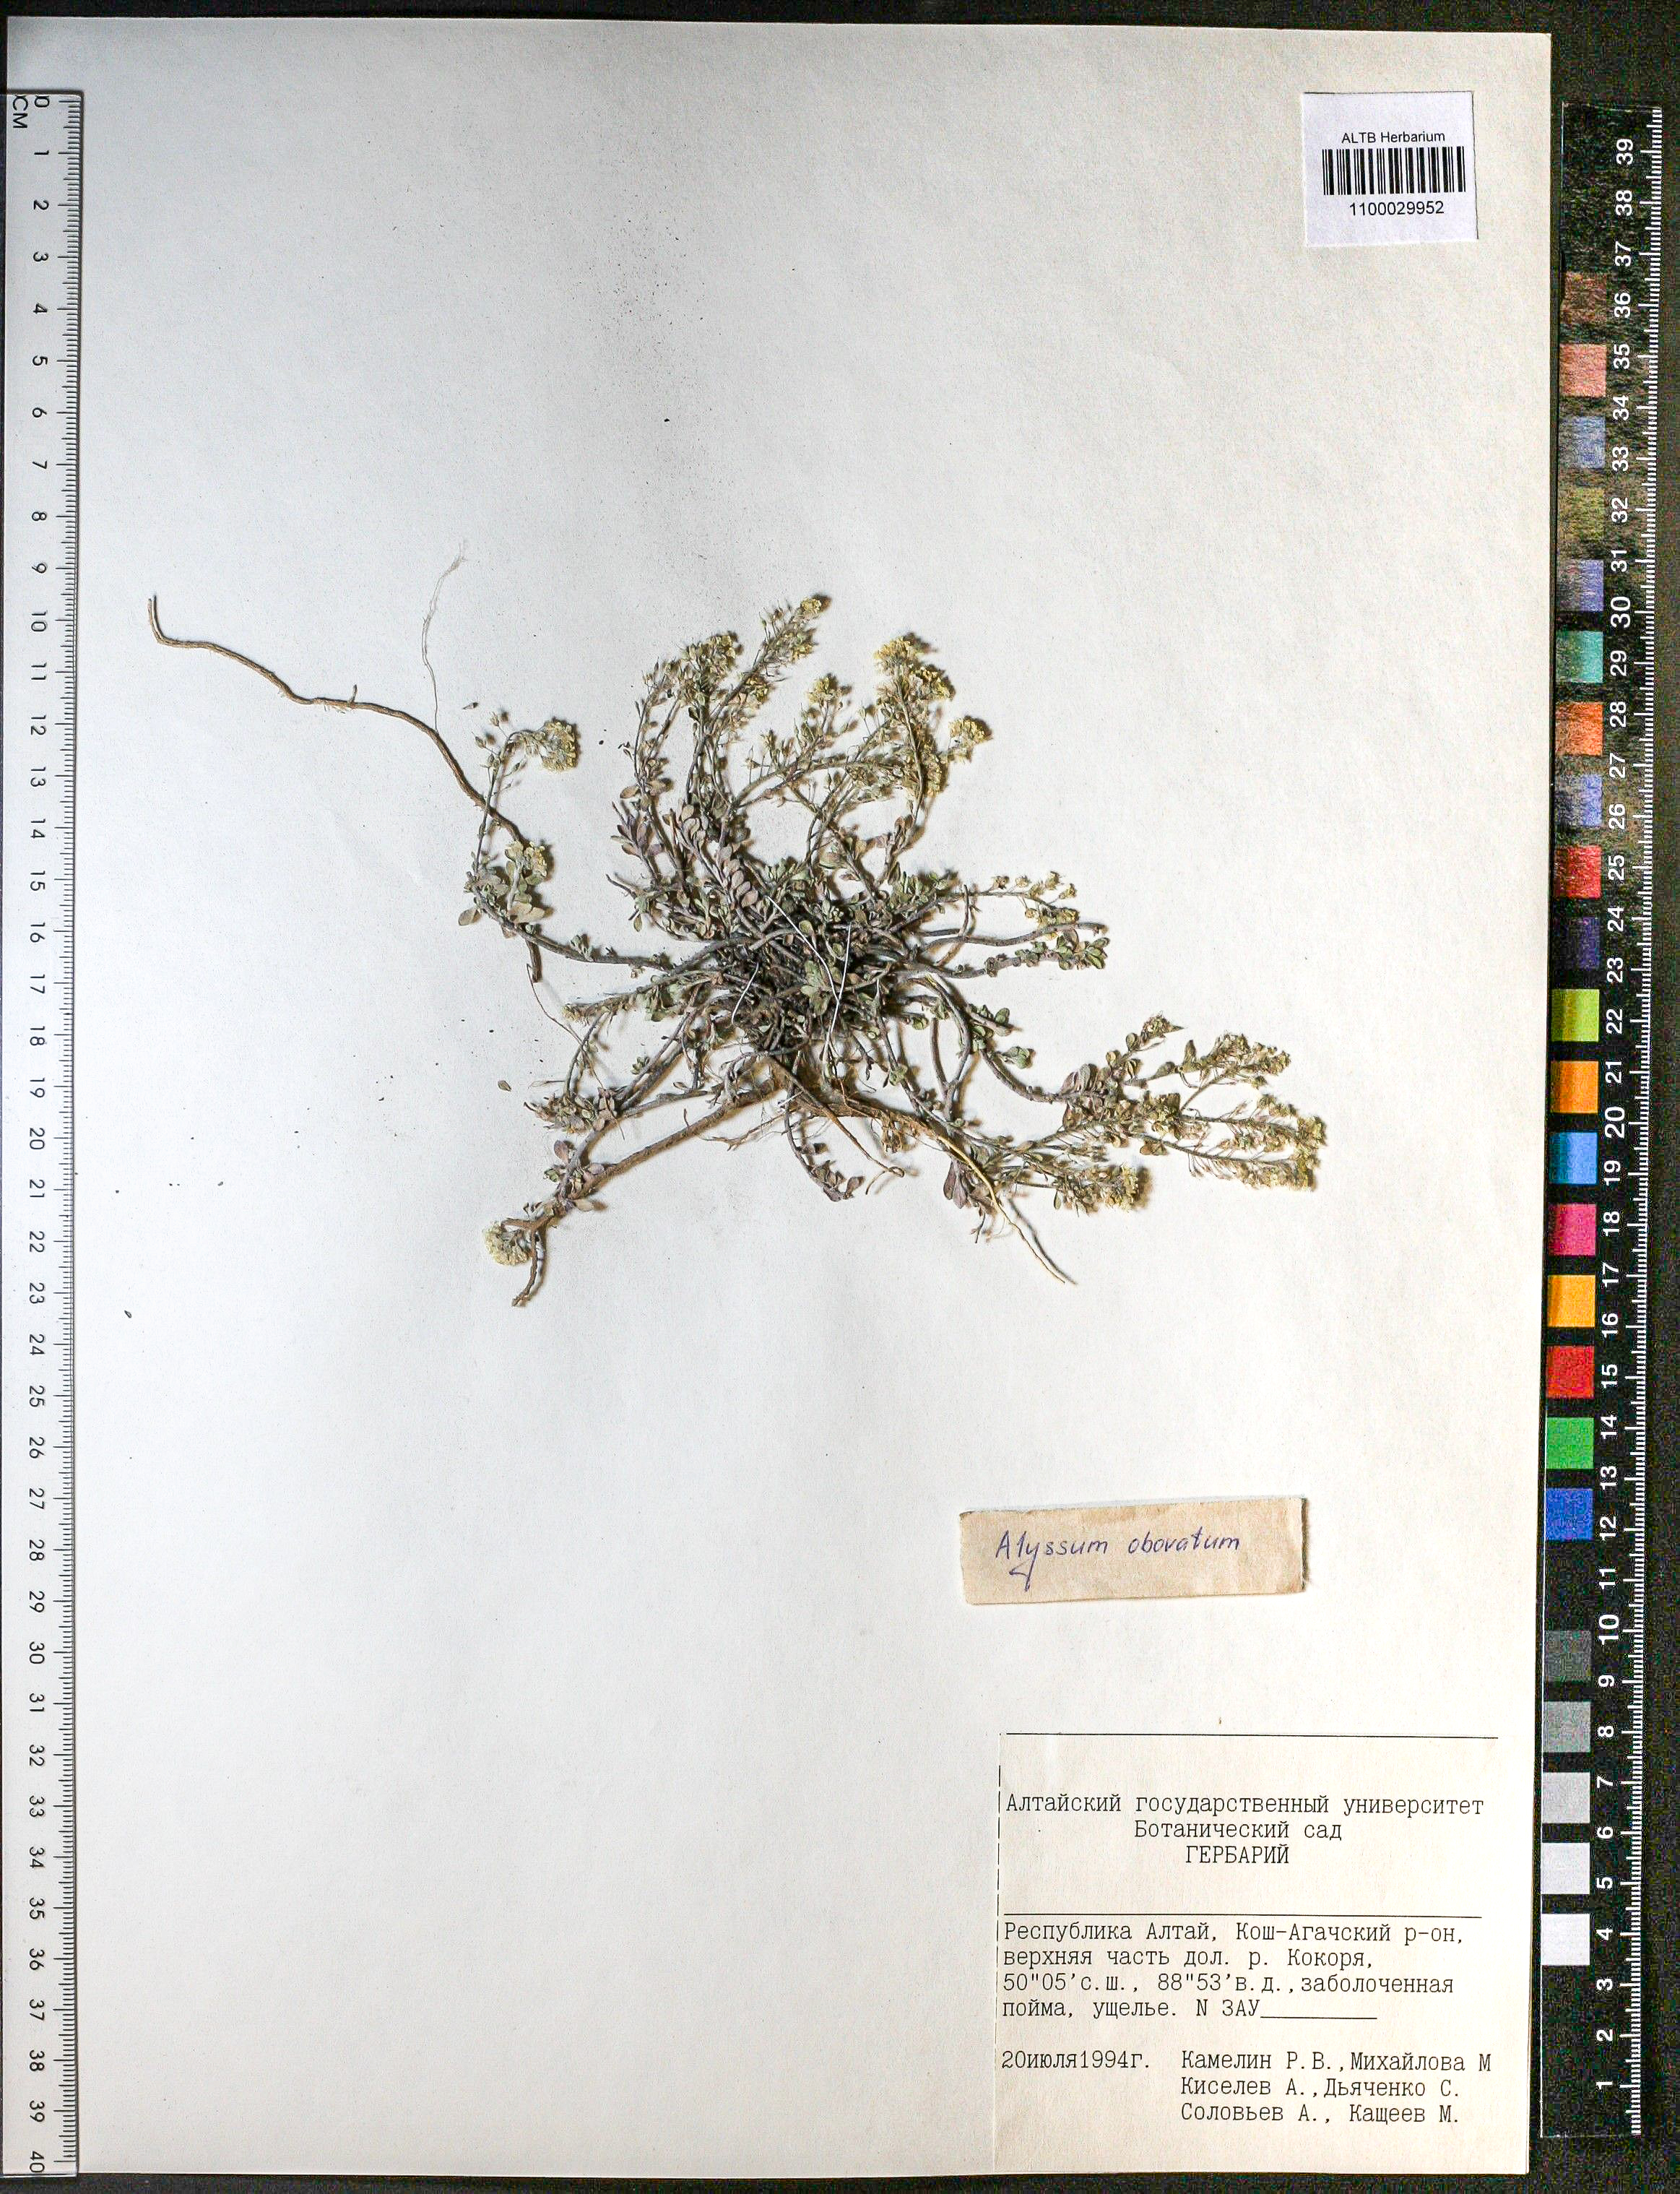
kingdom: Plantae
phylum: Tracheophyta
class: Magnoliopsida
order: Brassicales
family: Brassicaceae
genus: Odontarrhena
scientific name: Odontarrhena obovata
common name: American alyssum
